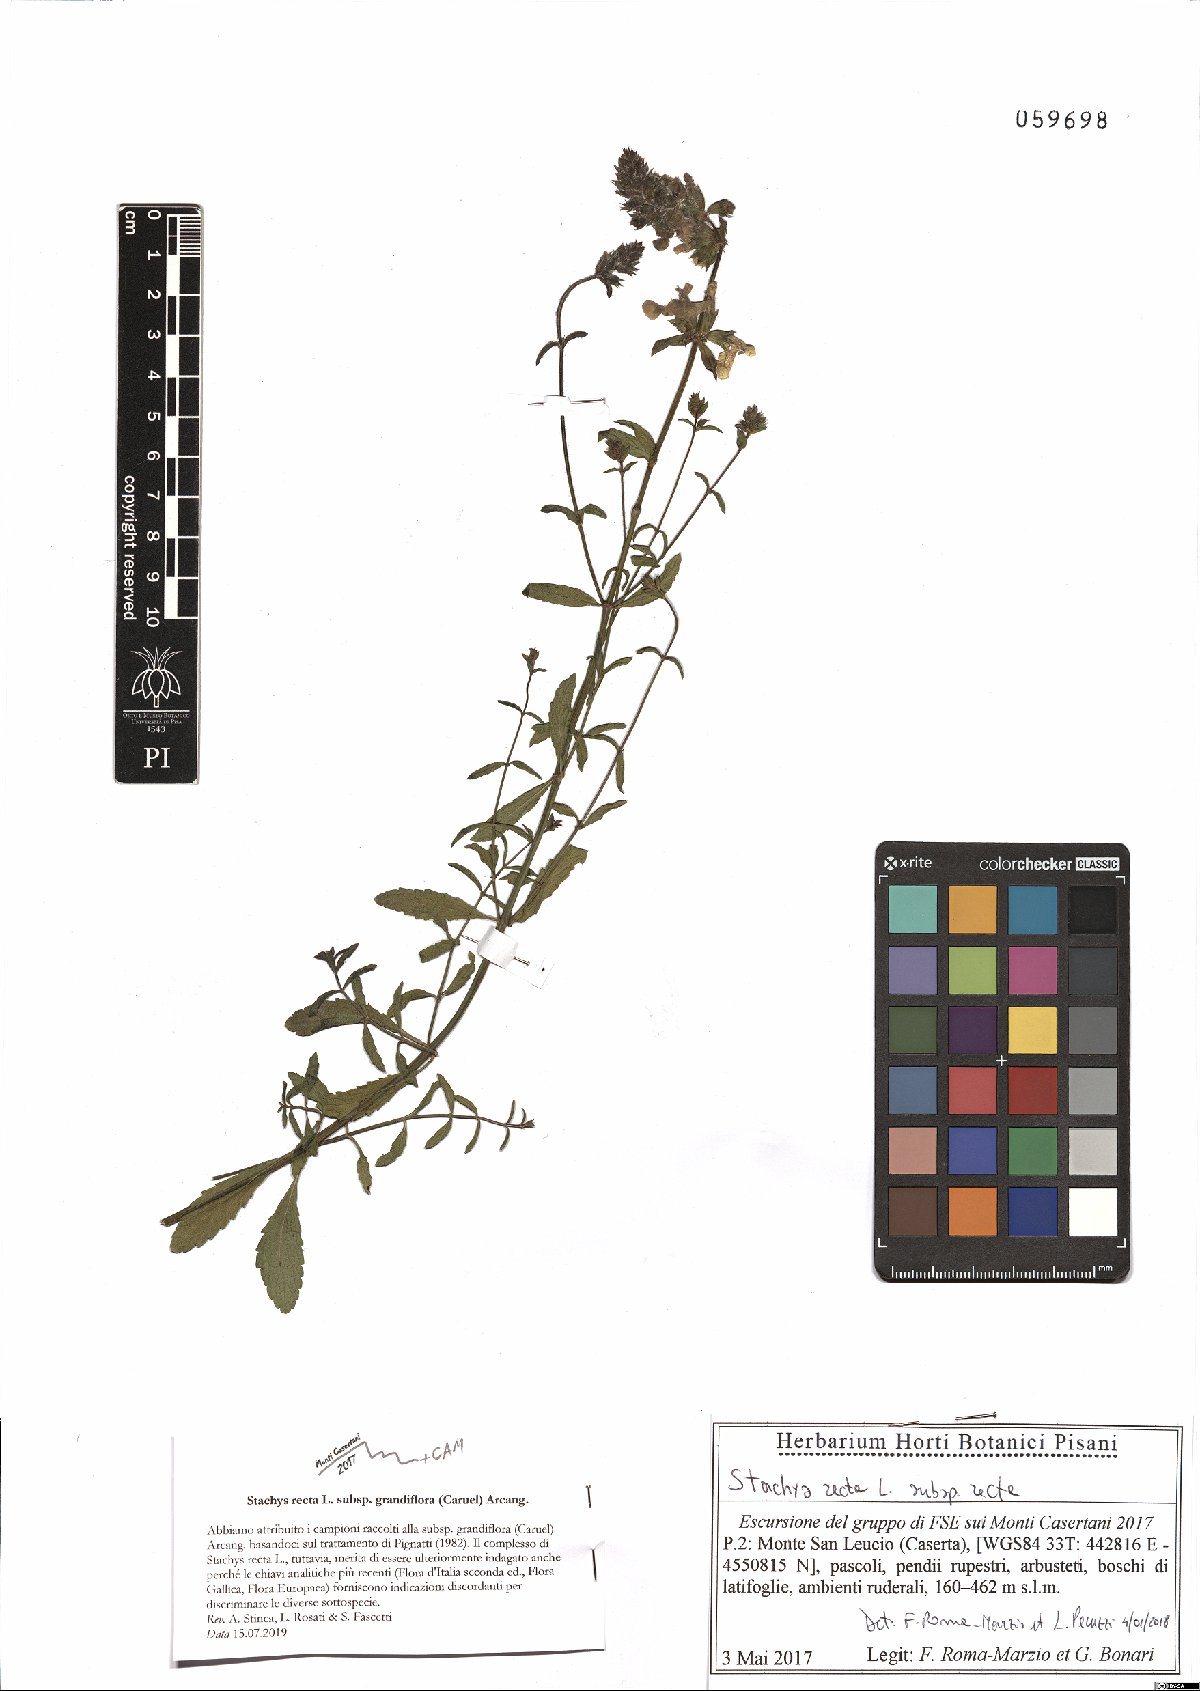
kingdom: Plantae
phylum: Tracheophyta
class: Magnoliopsida
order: Lamiales
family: Lamiaceae
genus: Stachys
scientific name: Stachys recta
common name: Perennial yellow-woundwort
